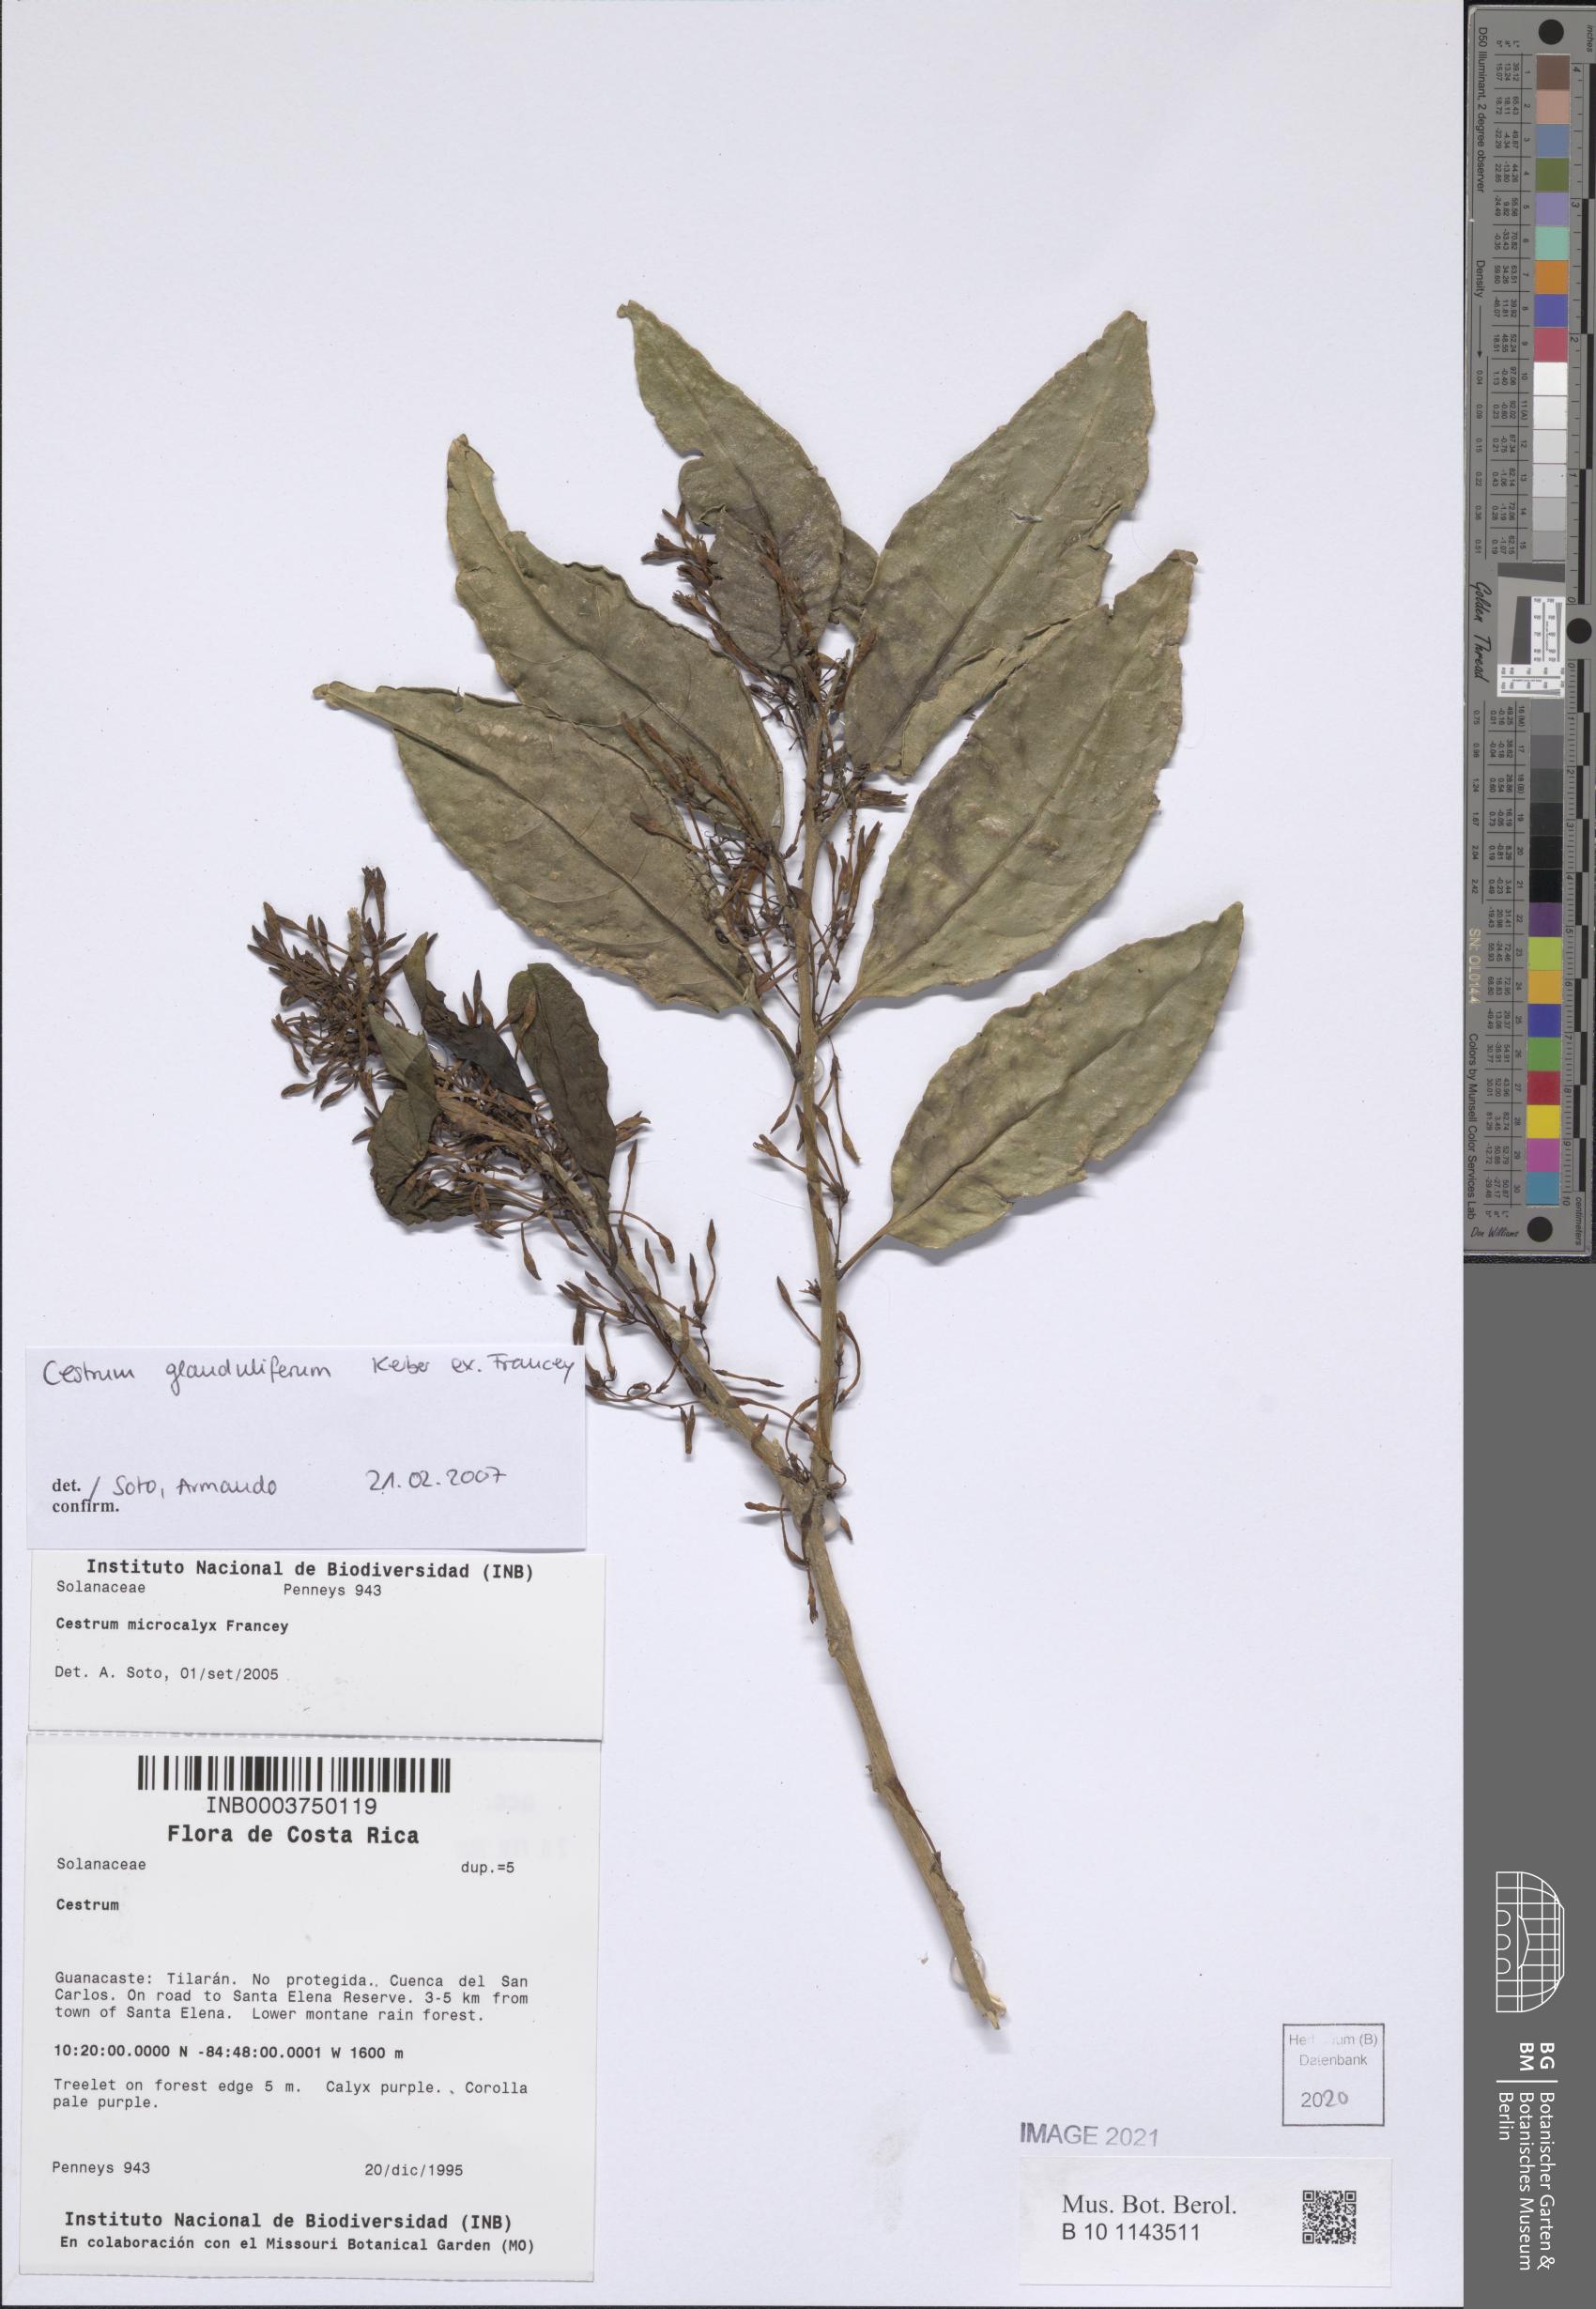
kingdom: Plantae
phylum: Tracheophyta
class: Magnoliopsida
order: Solanales
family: Solanaceae
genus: Cestrum
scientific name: Cestrum glanduliferum
